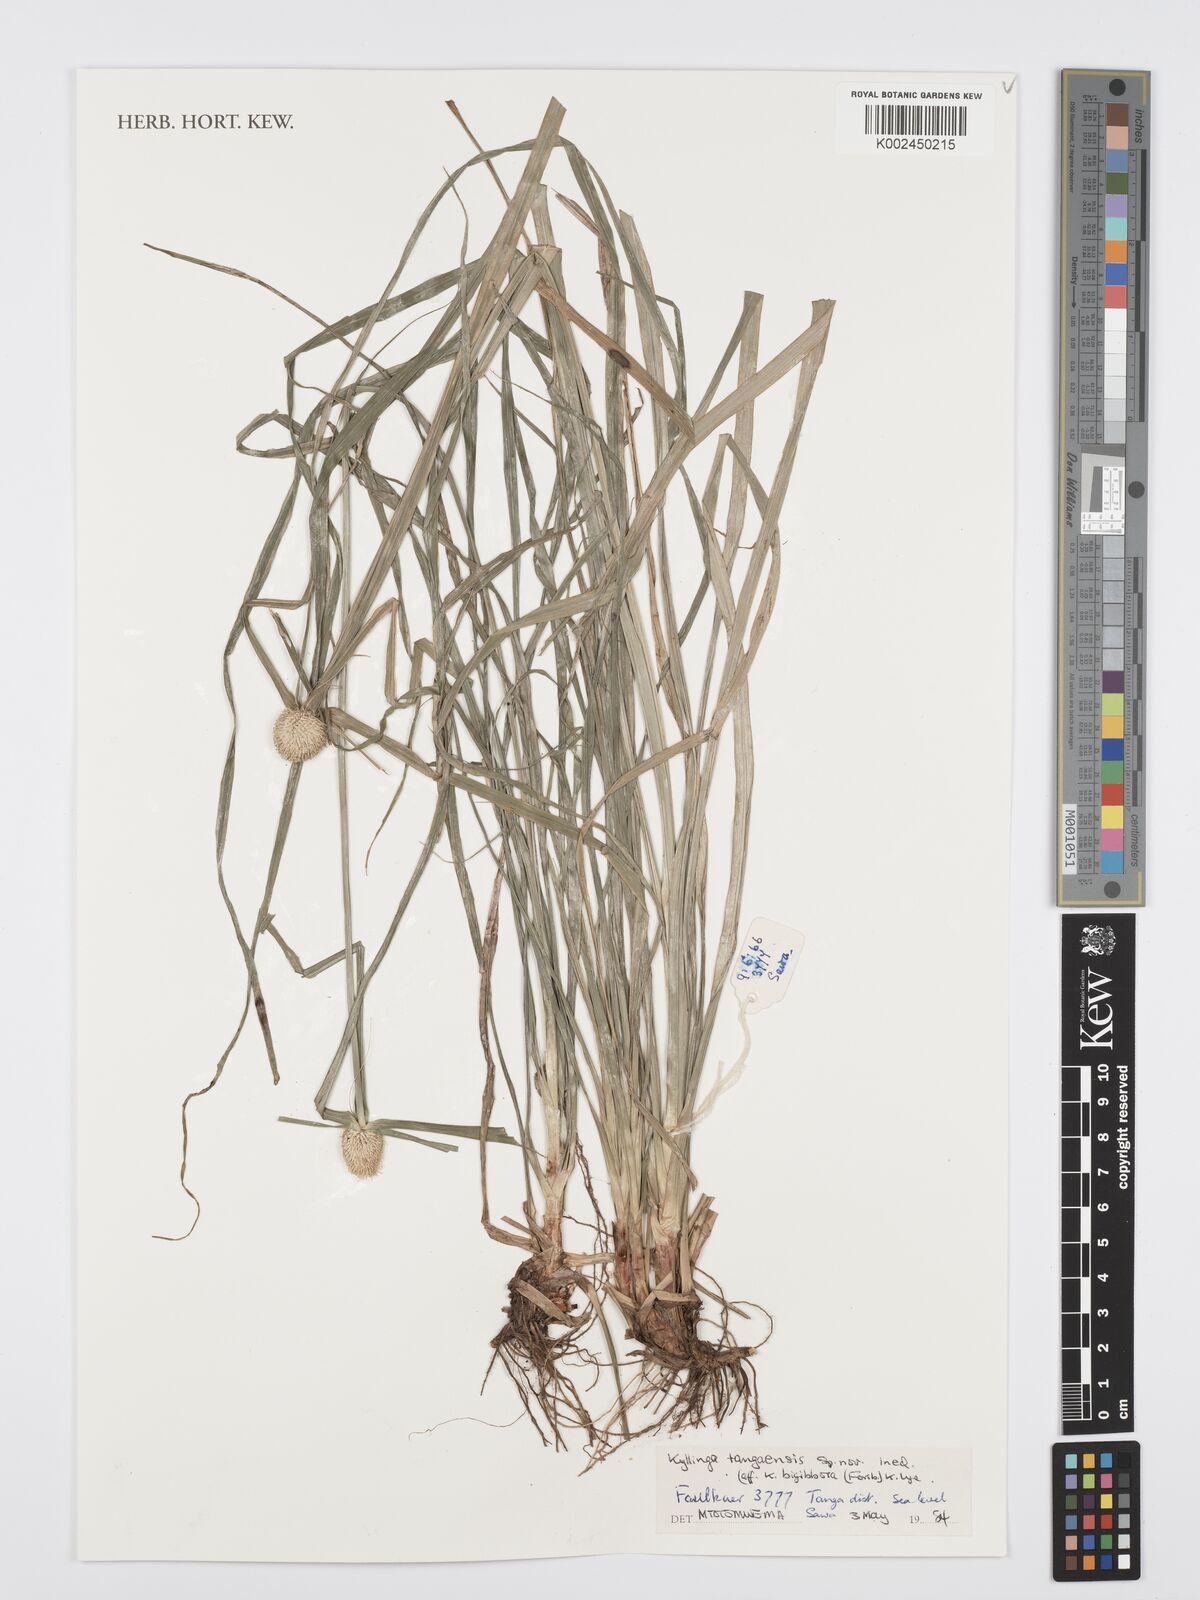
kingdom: Plantae
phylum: Tracheophyta
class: Liliopsida
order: Poales
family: Cyperaceae
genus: Cyperus
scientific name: Cyperus
